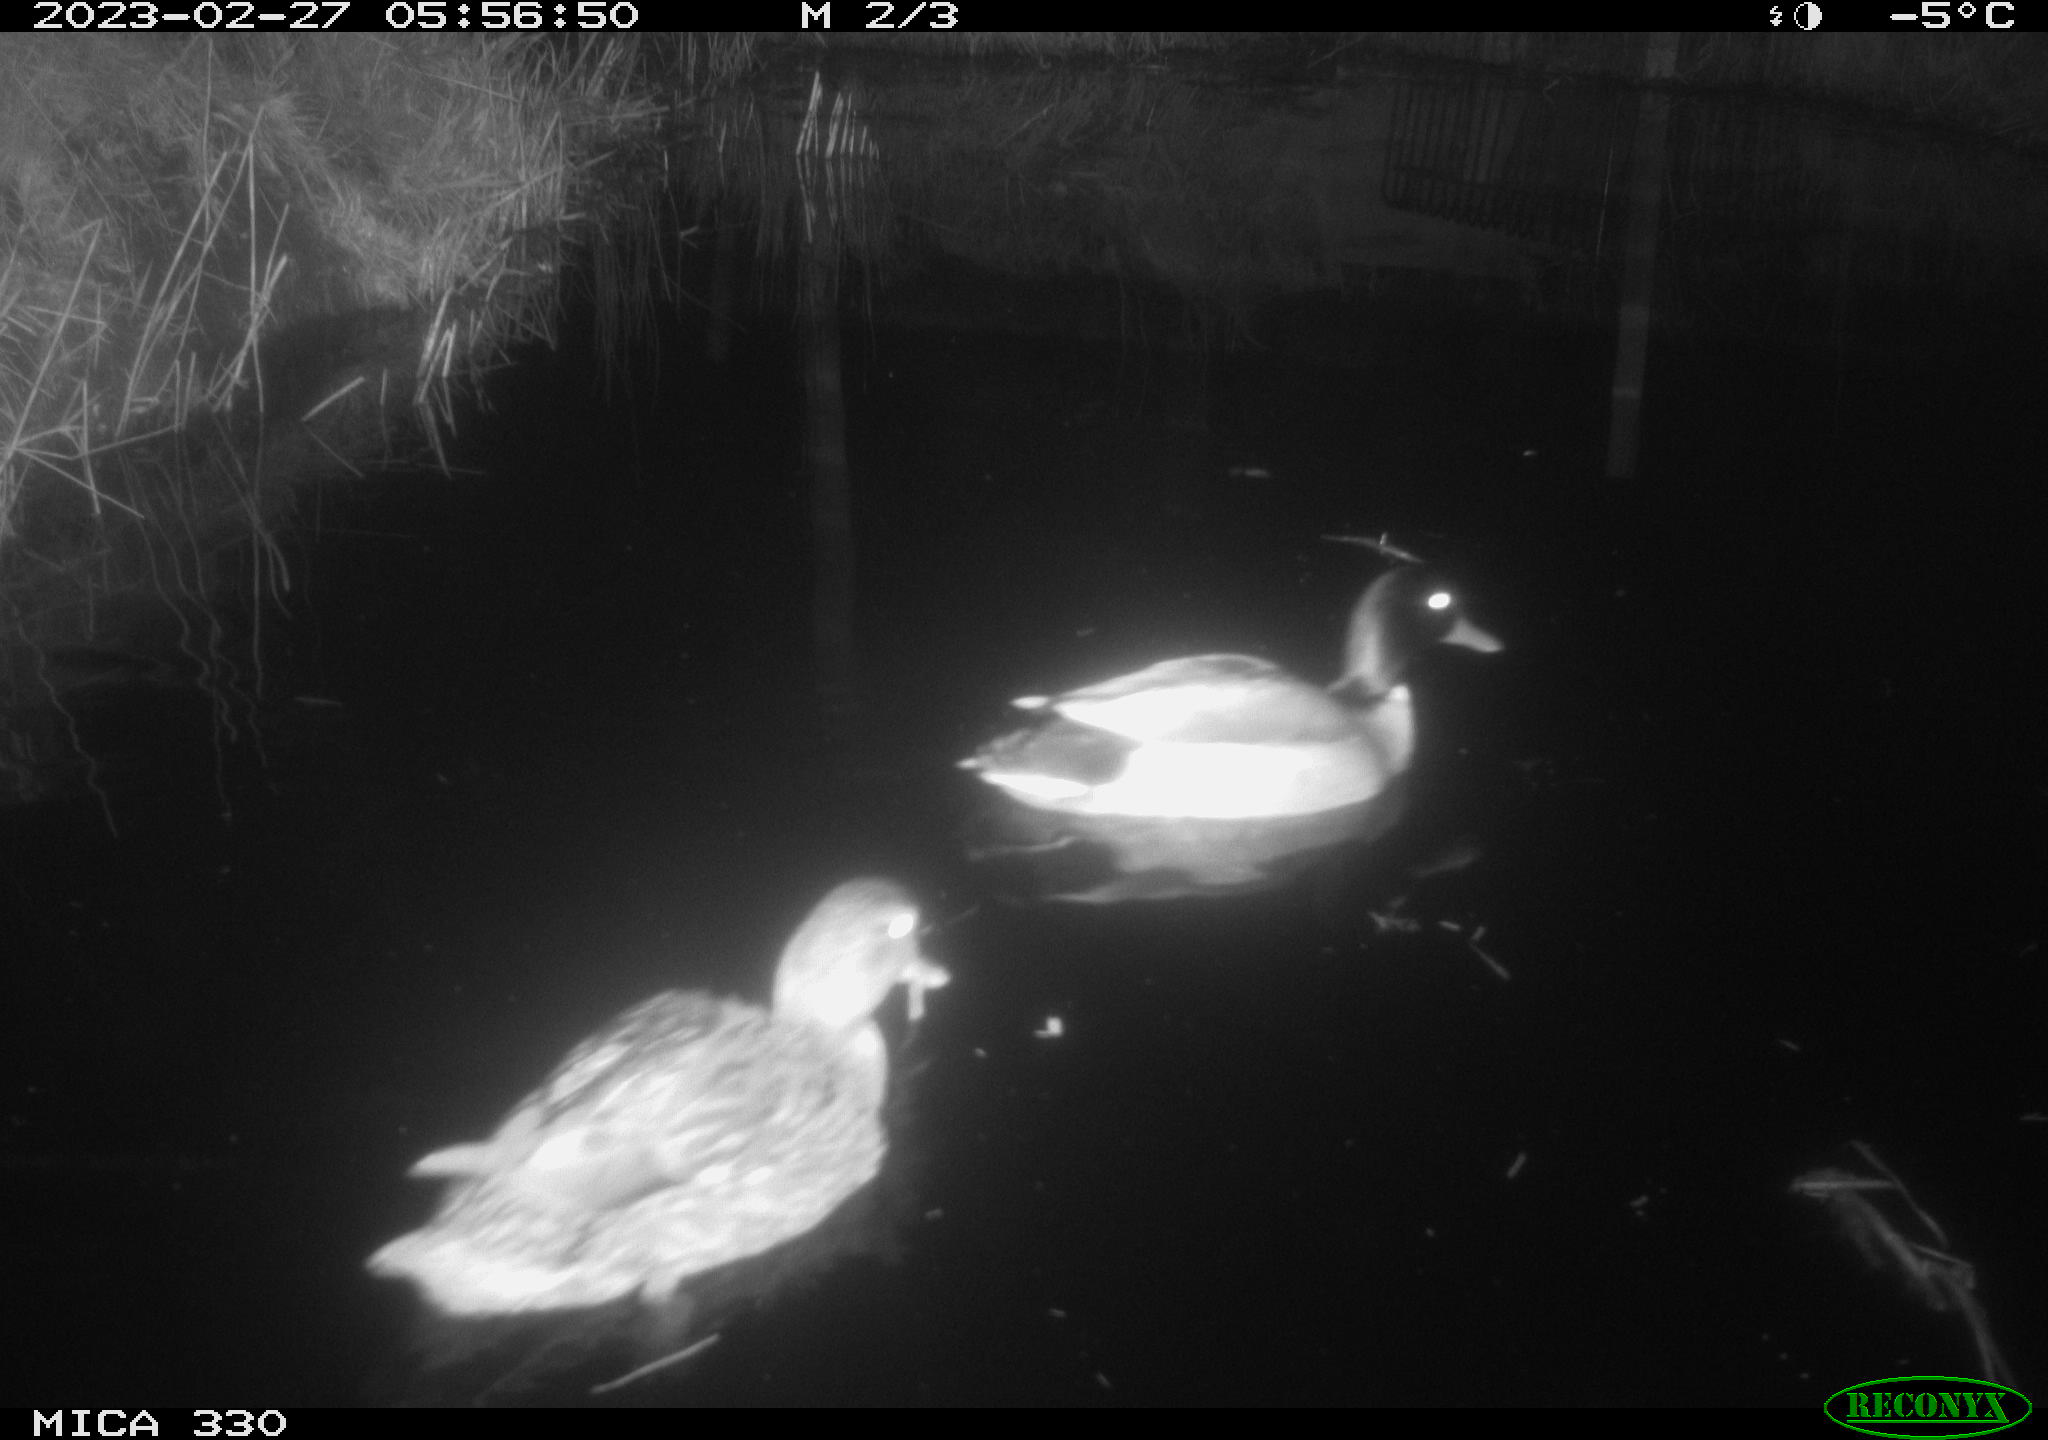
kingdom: Animalia
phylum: Chordata
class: Aves
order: Anseriformes
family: Anatidae
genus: Anas
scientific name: Anas
